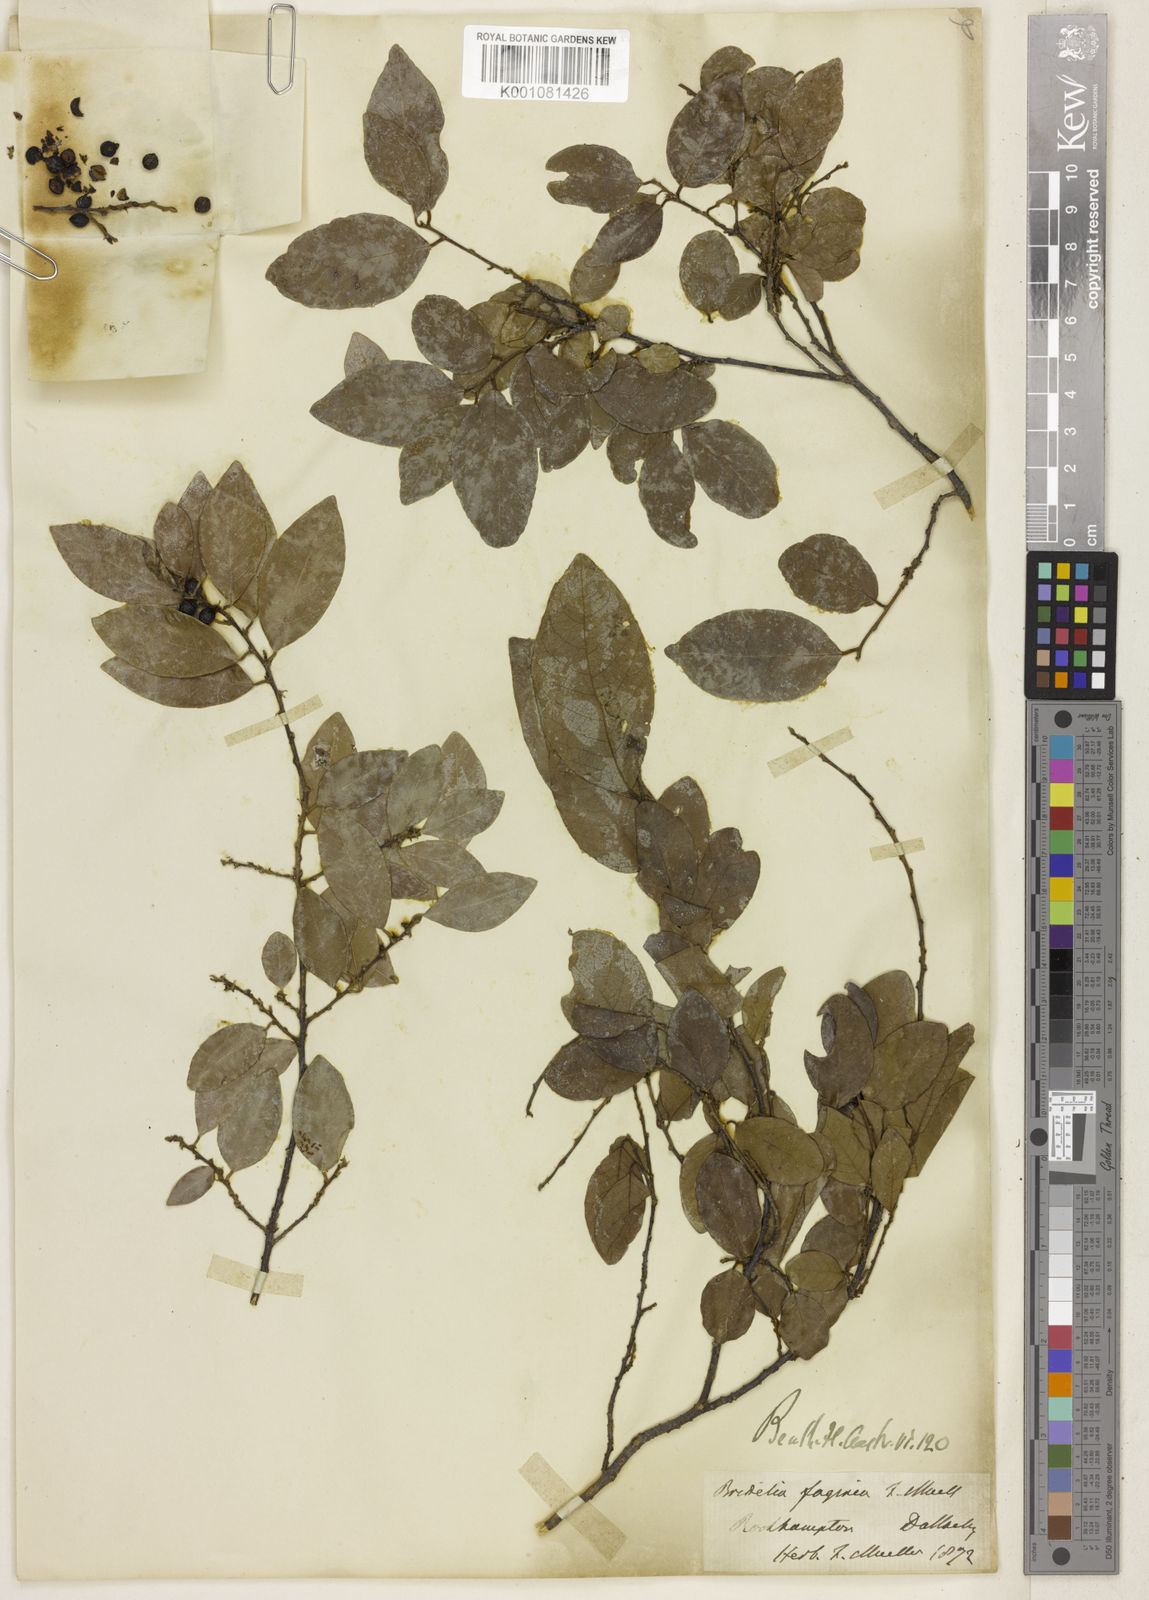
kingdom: Plantae
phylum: Tracheophyta
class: Magnoliopsida
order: Malpighiales
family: Phyllanthaceae
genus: Bridelia
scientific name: Bridelia
